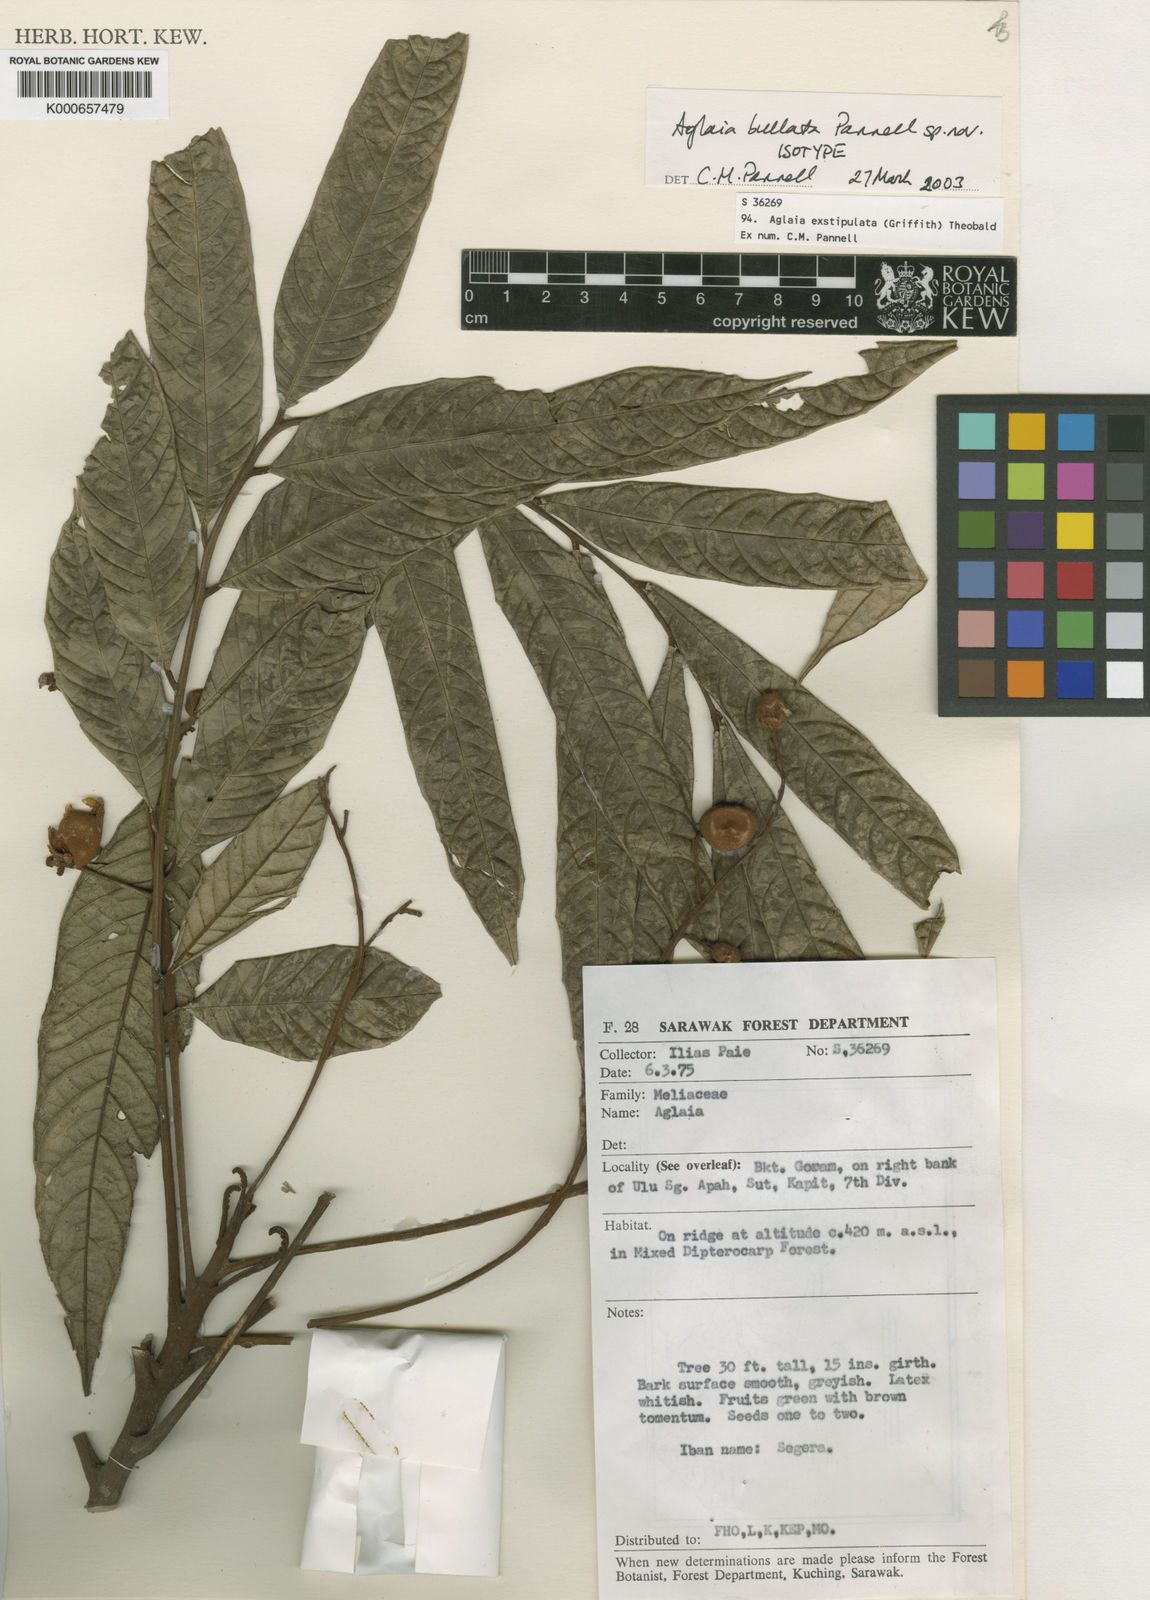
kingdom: Plantae
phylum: Tracheophyta
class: Magnoliopsida
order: Sapindales
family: Meliaceae
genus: Aglaia
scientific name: Aglaia exstipulata
